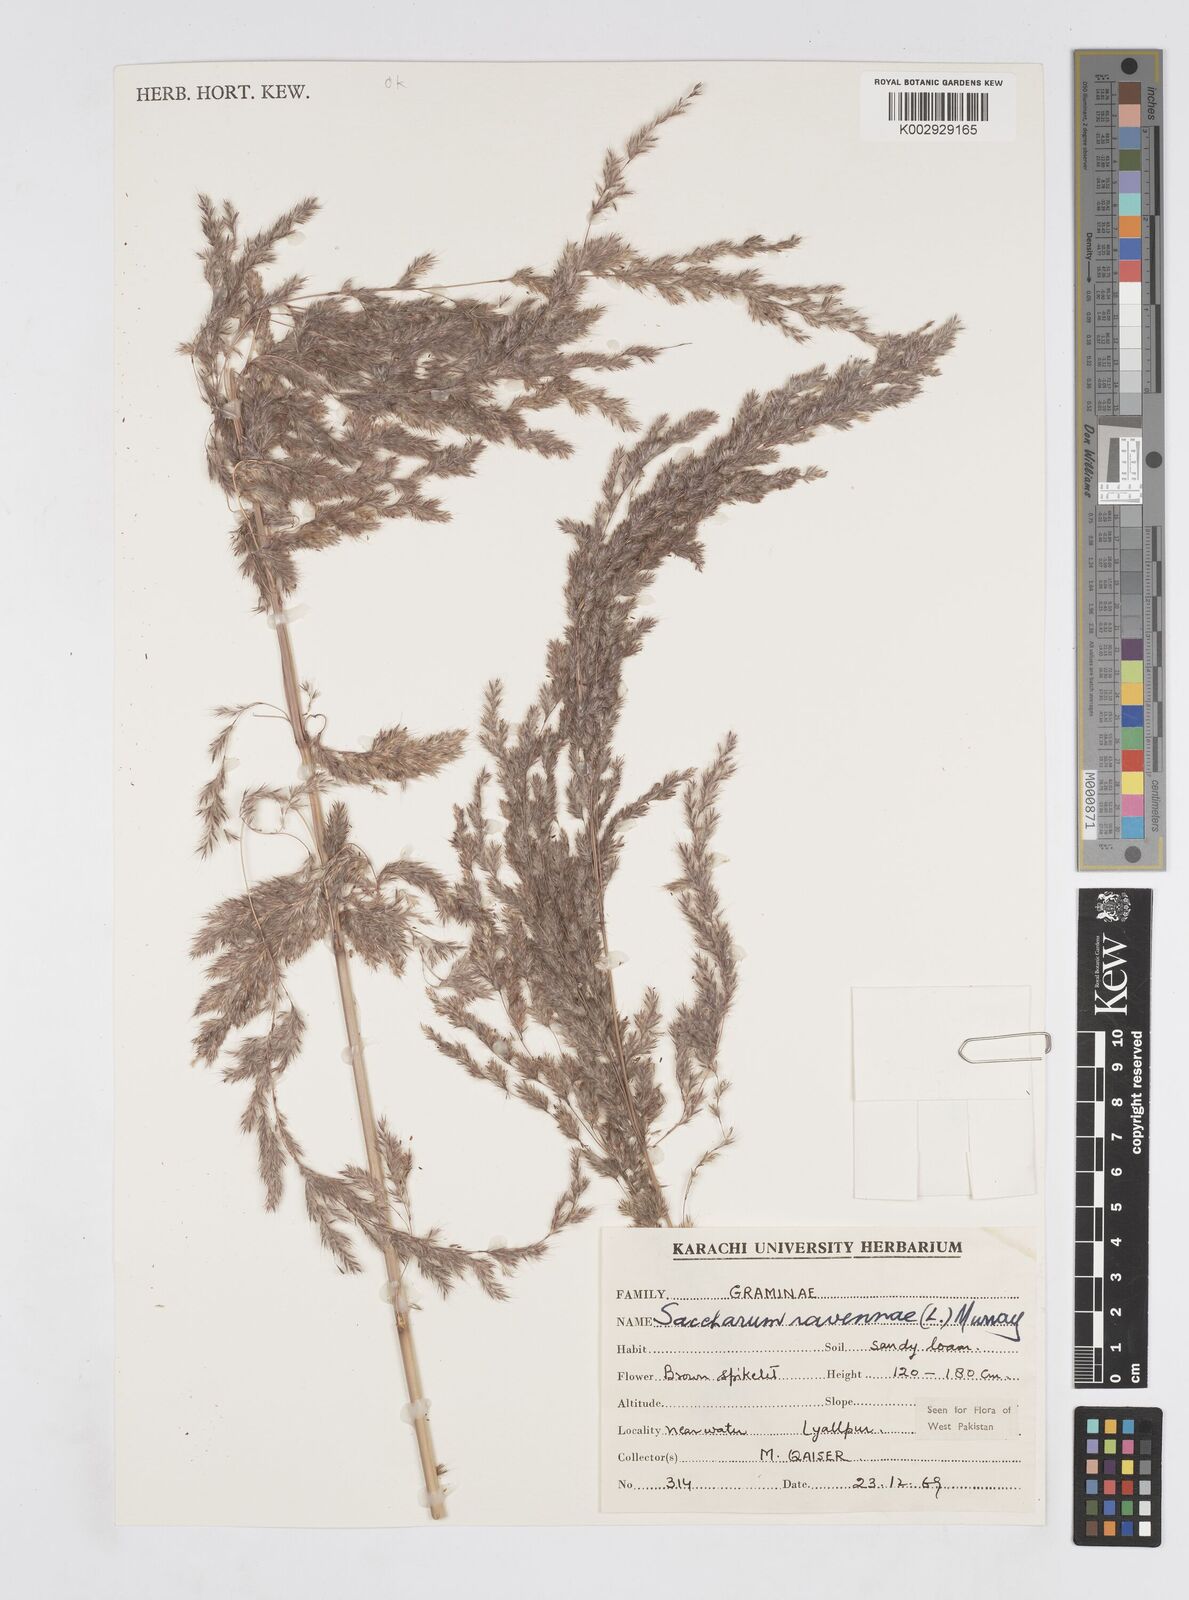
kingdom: Plantae
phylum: Tracheophyta
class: Liliopsida
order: Poales
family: Poaceae
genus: Tripidium
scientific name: Tripidium ravennae
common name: Ravenna grass
